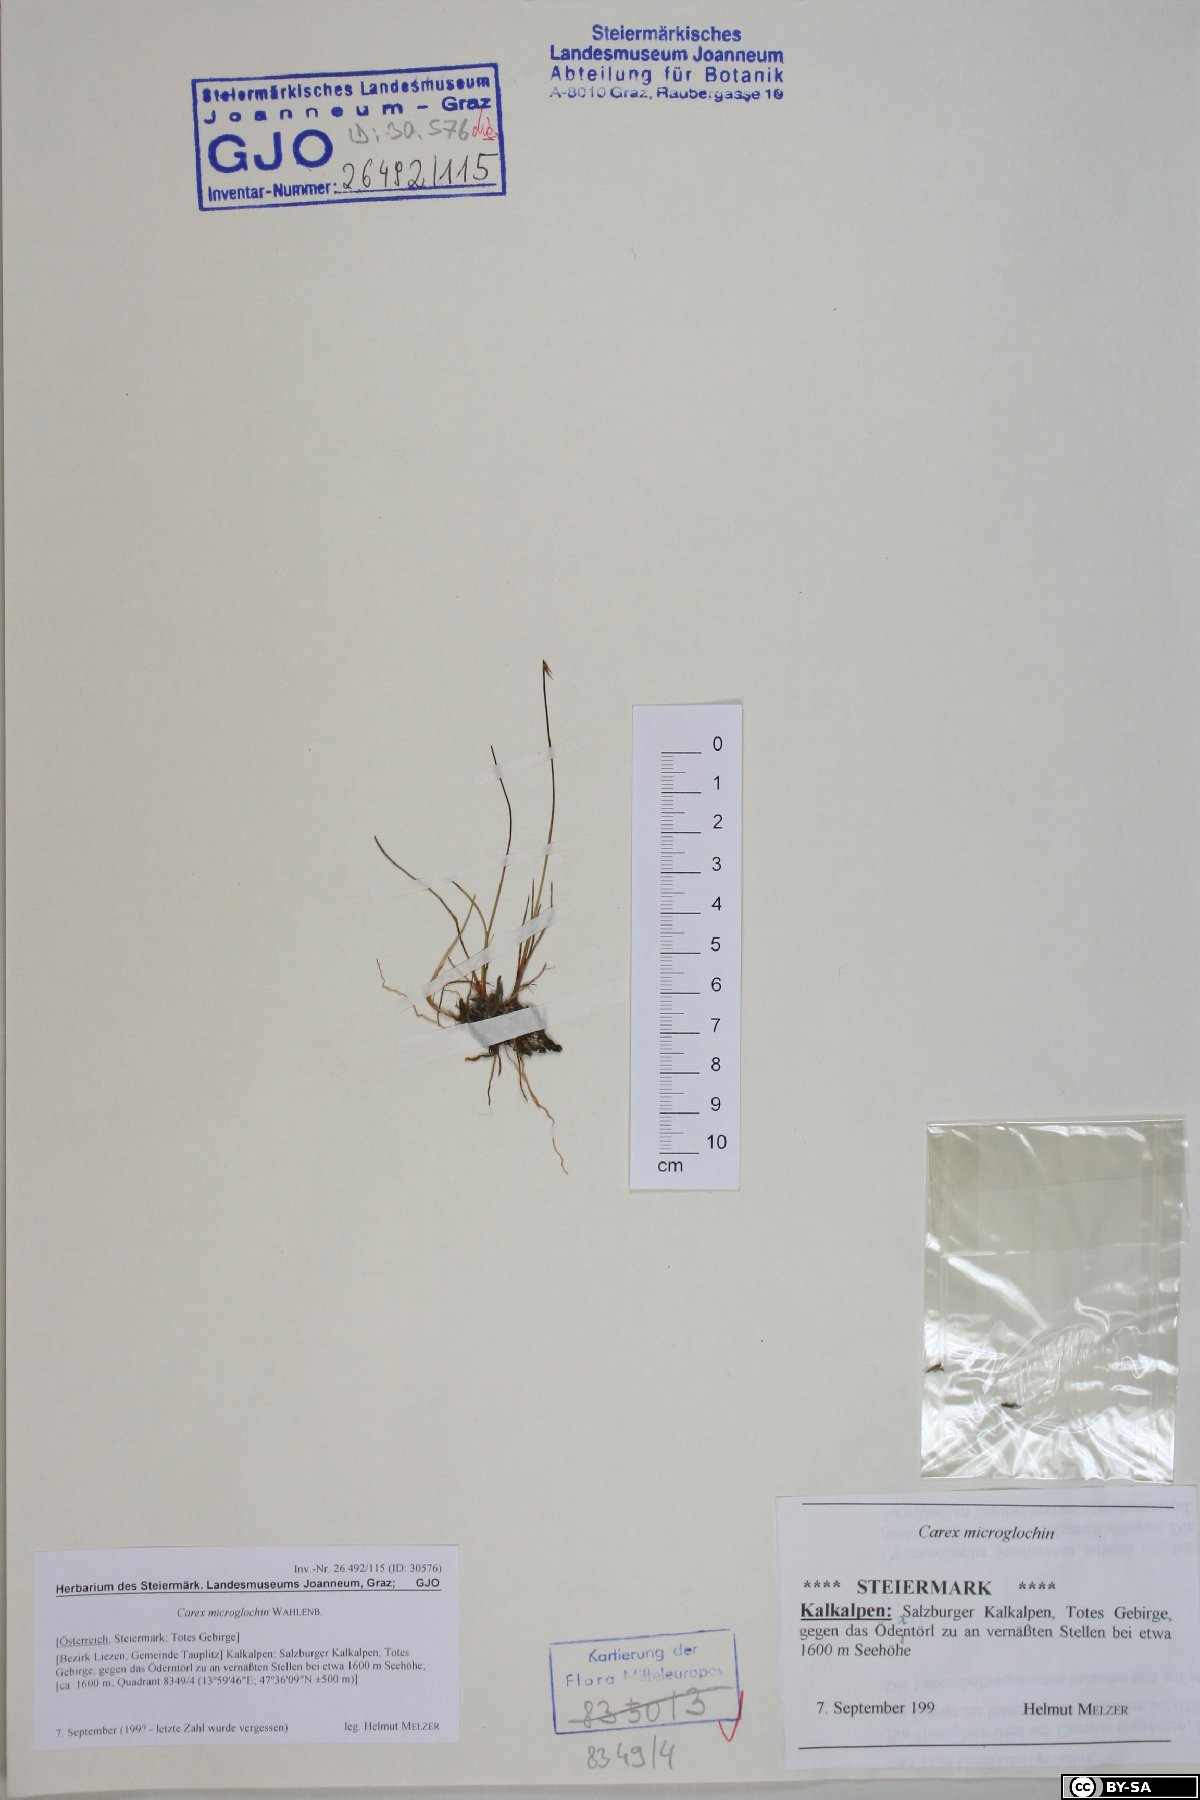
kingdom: Plantae
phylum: Tracheophyta
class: Liliopsida
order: Poales
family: Cyperaceae
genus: Carex
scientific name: Carex microglochin
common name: Bristle sedge
